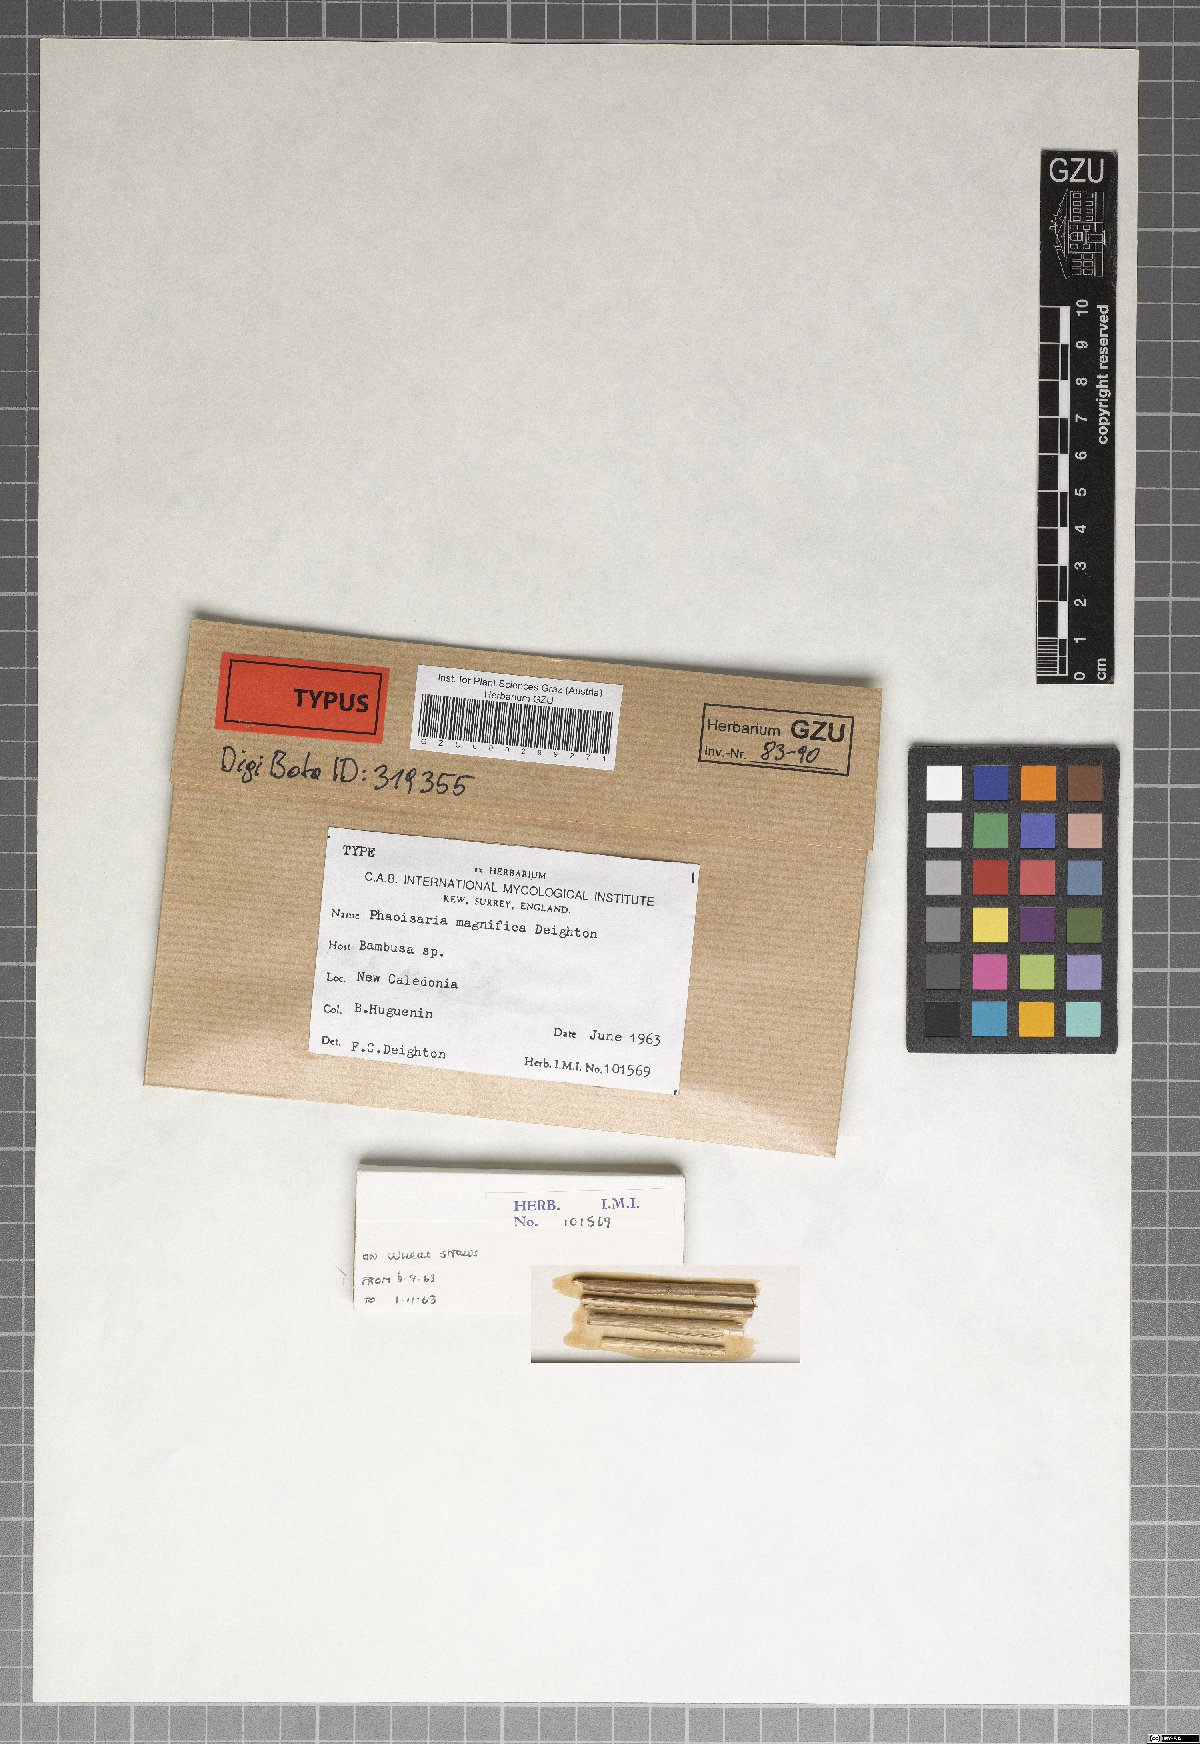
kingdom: Fungi
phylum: Ascomycota
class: Sordariomycetes
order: Xylariales
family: Diatrypaceae
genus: Phaeoisaria
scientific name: Phaeoisaria magnifica
